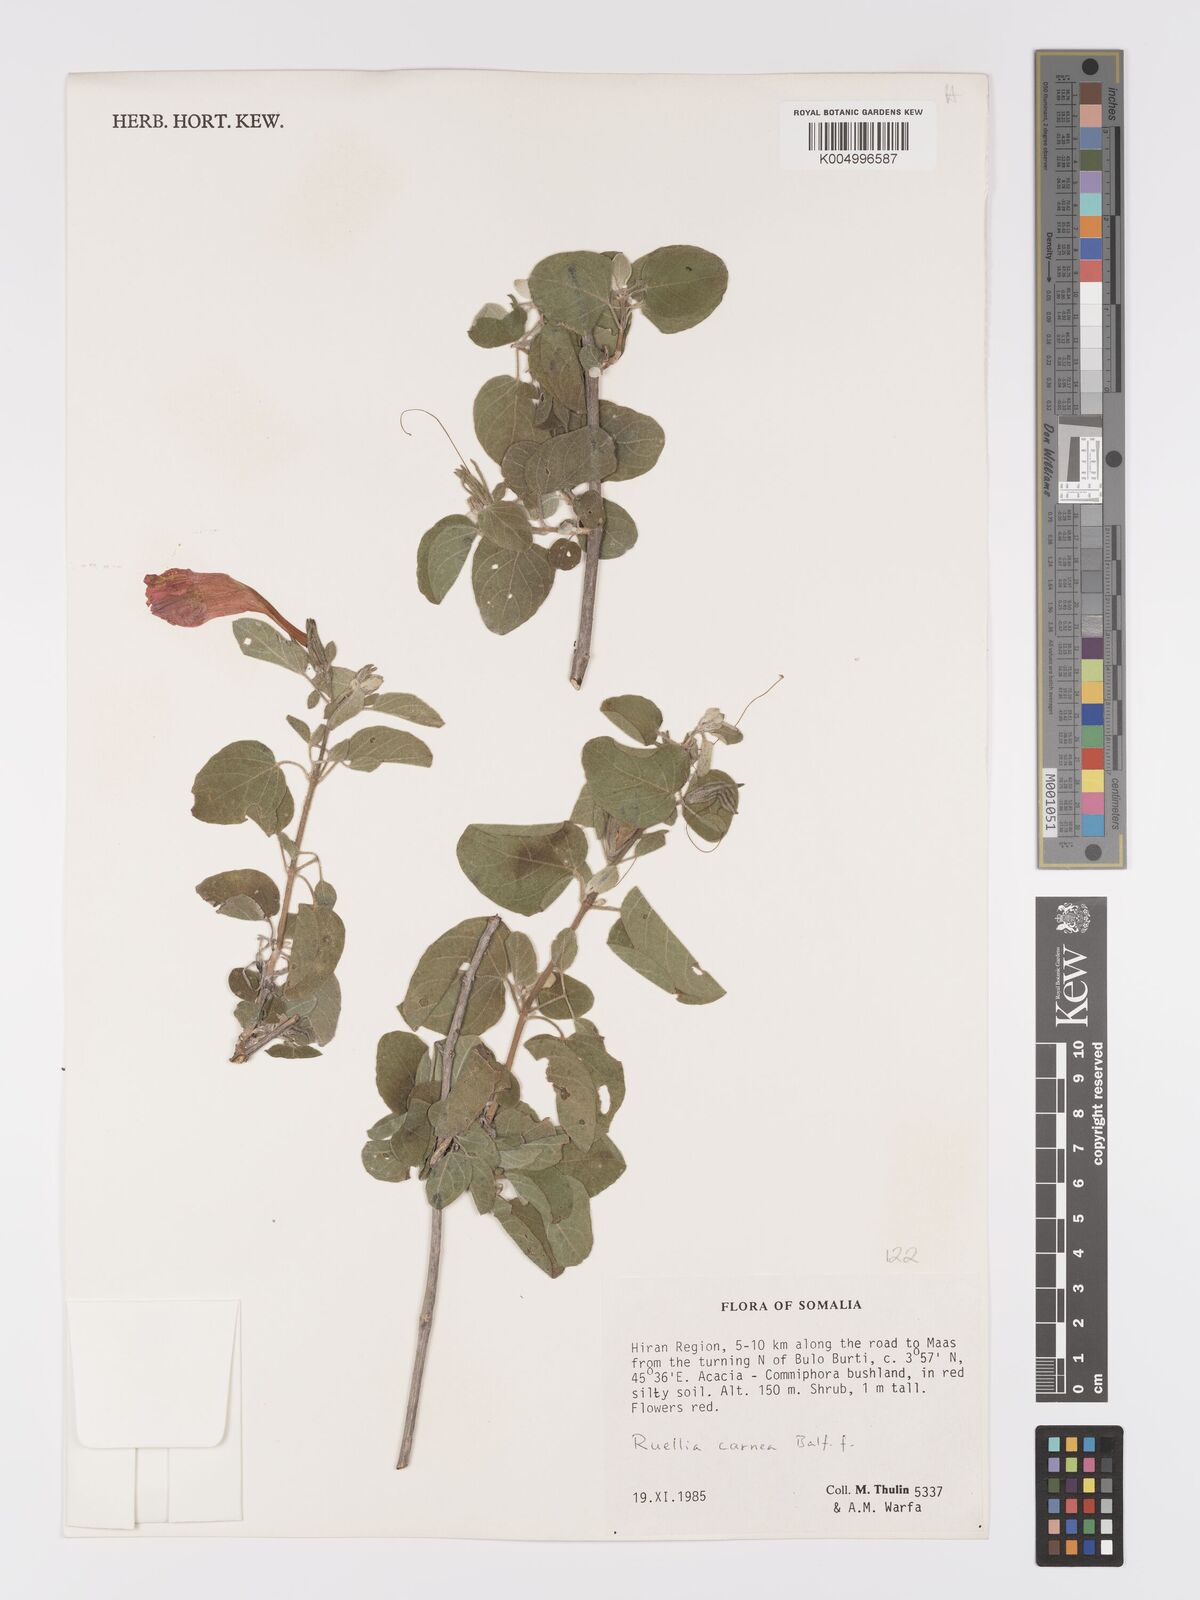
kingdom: Plantae
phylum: Tracheophyta
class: Magnoliopsida
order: Lamiales
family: Acanthaceae
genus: Ruellia
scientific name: Ruellia carnea
